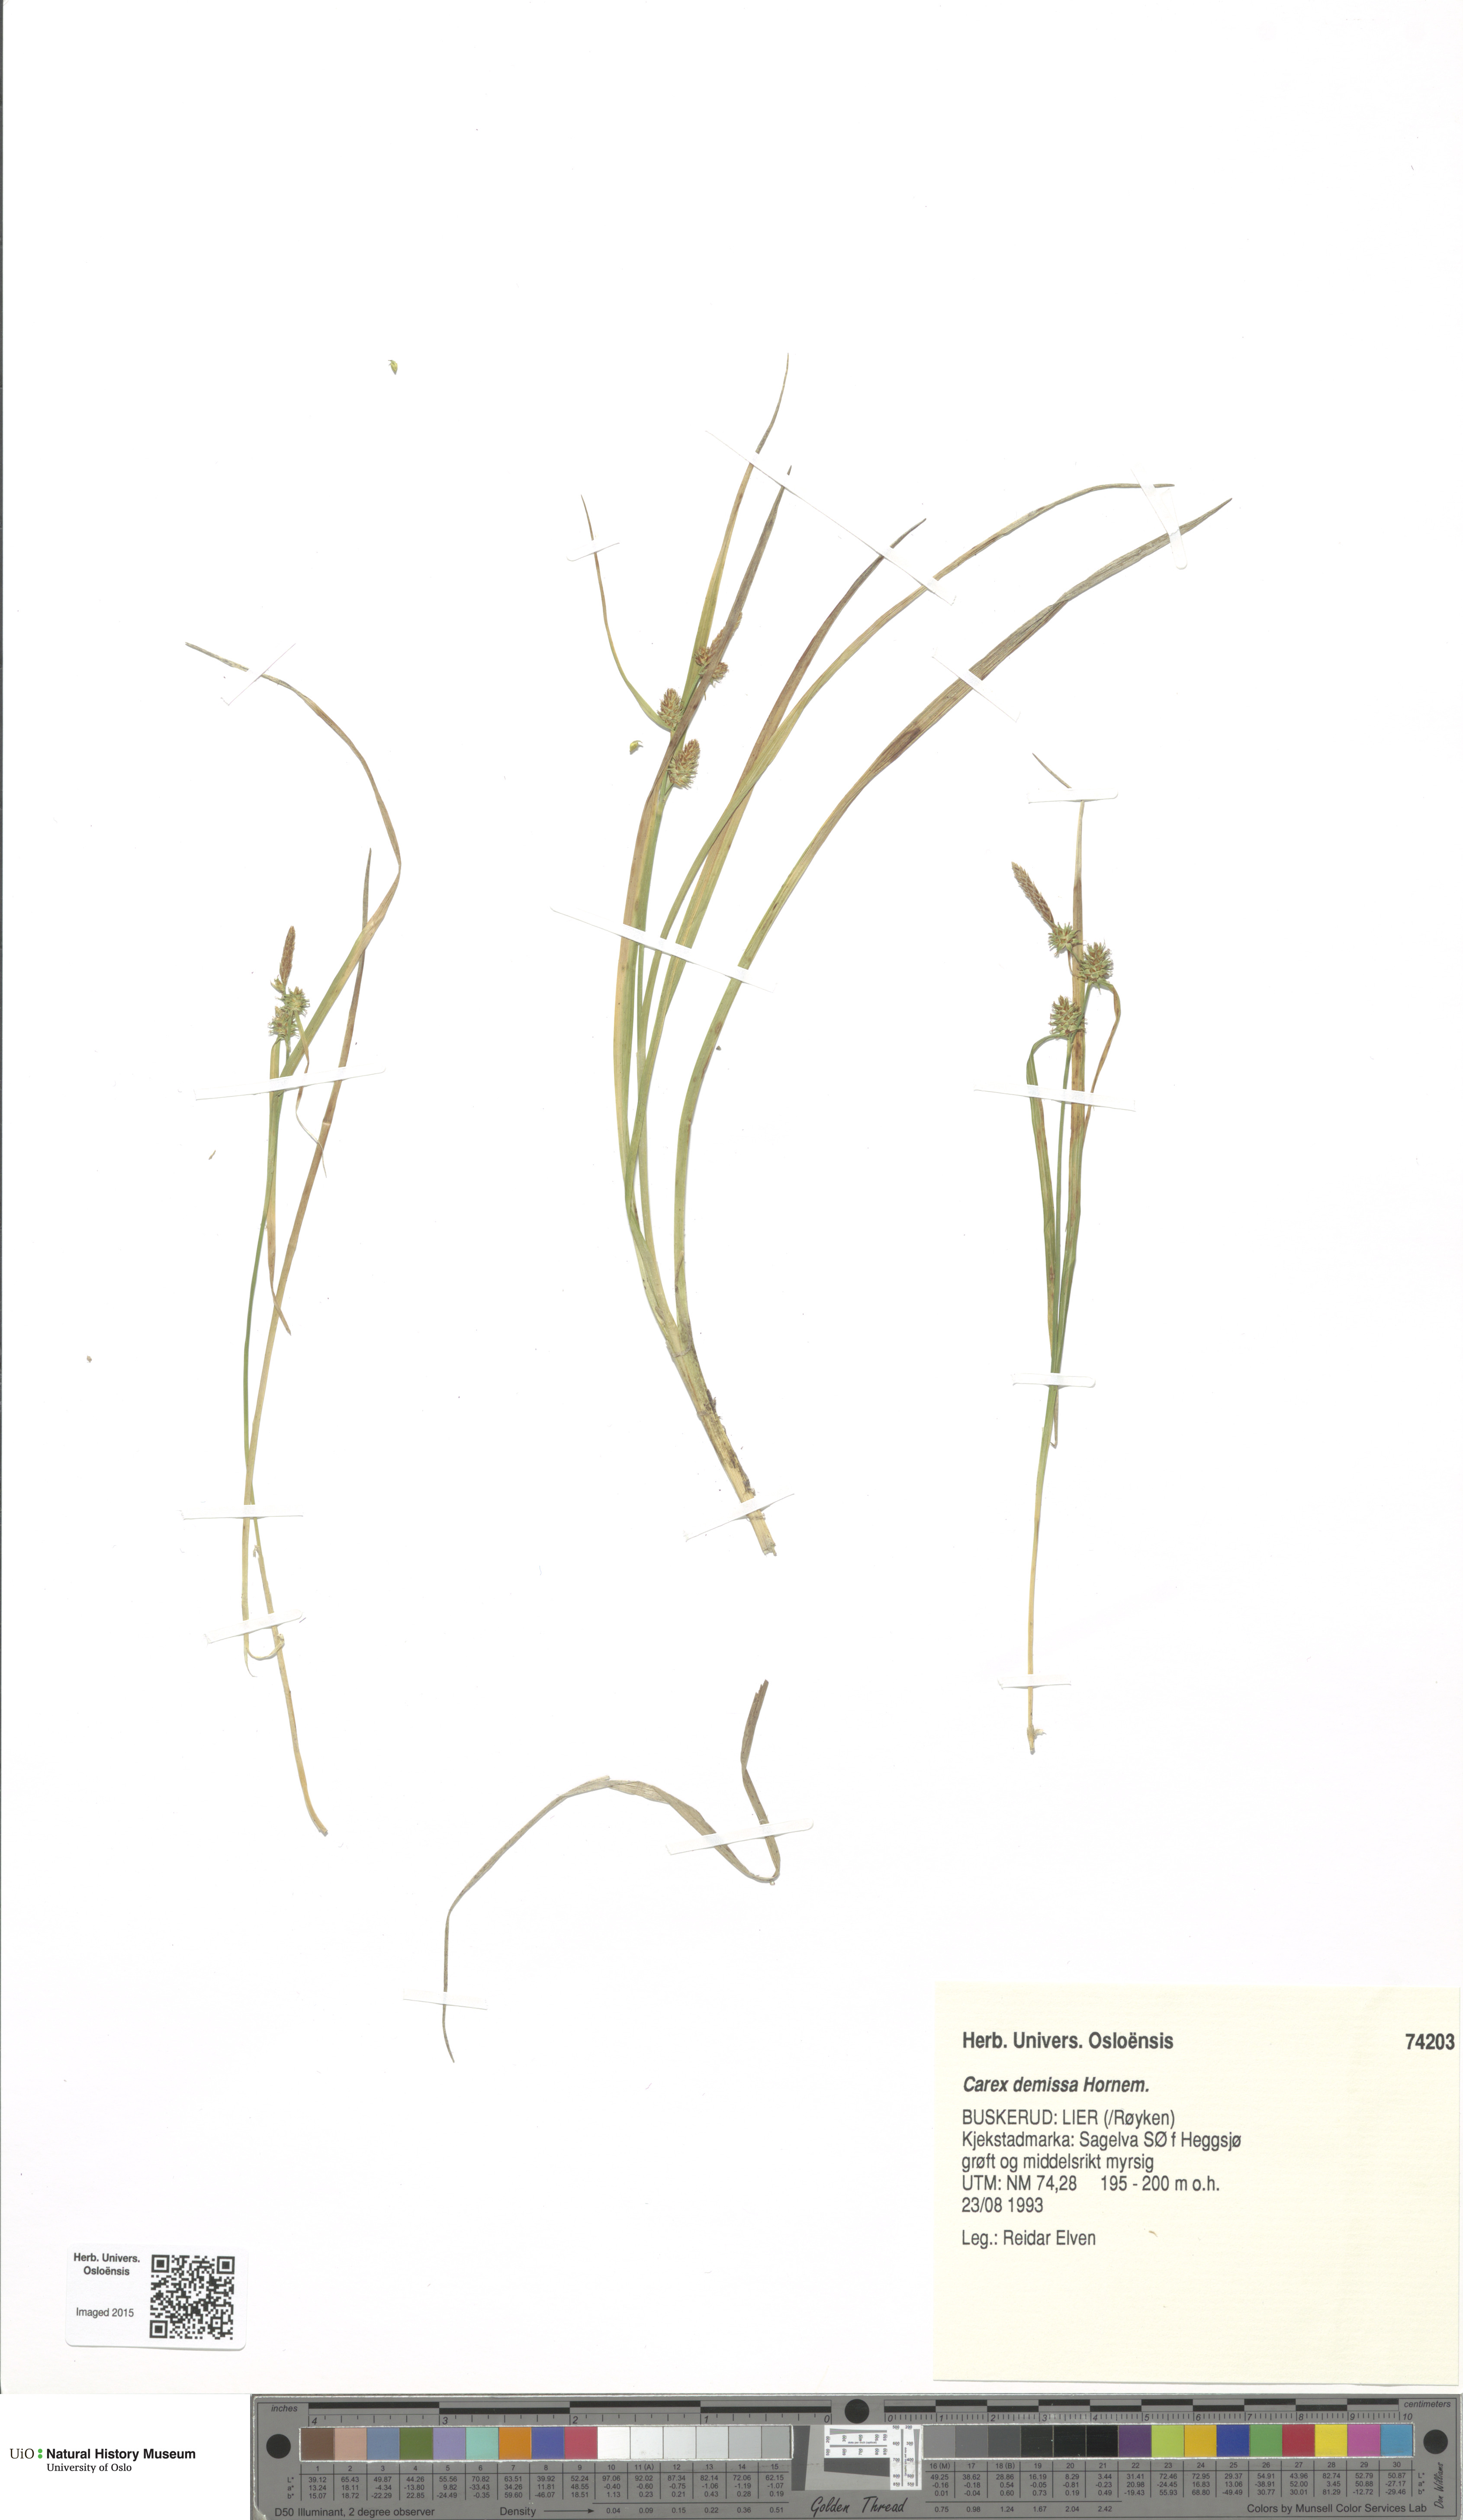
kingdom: Plantae
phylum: Tracheophyta
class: Liliopsida
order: Poales
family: Cyperaceae
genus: Carex
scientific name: Carex demissa
